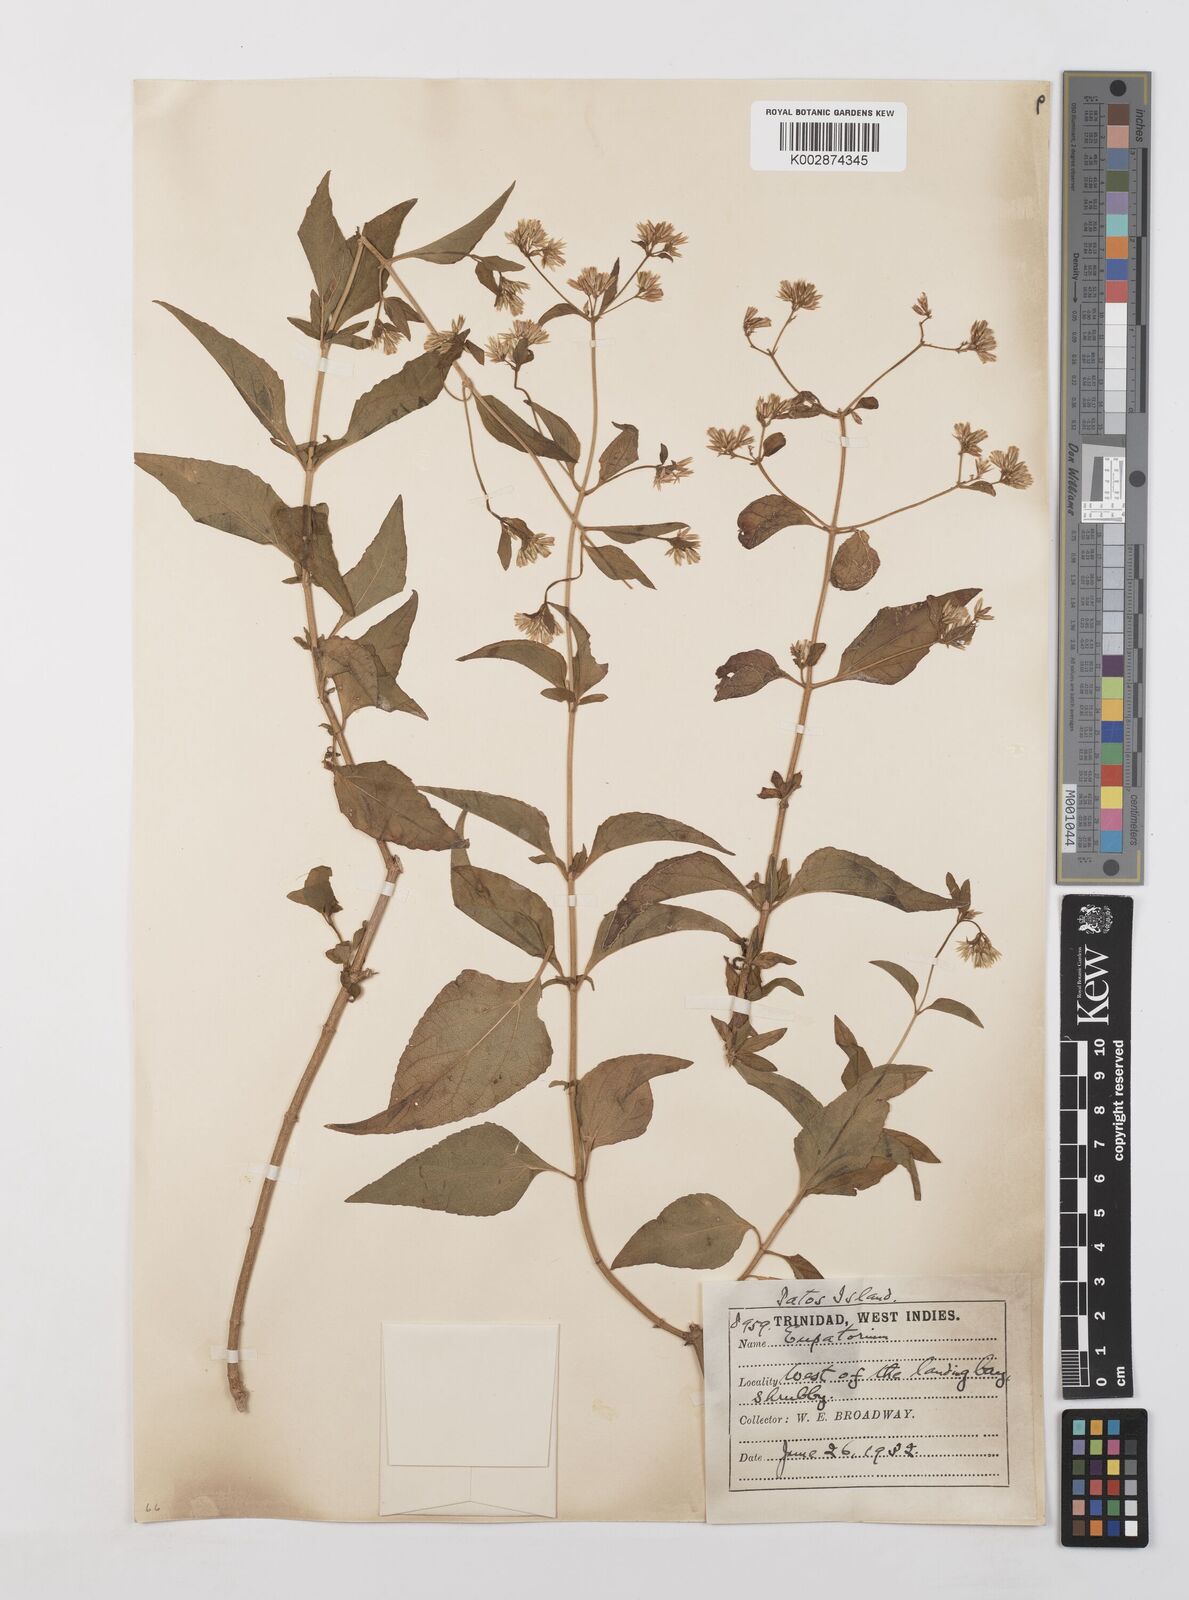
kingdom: Plantae
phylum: Tracheophyta
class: Magnoliopsida
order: Asterales
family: Asteraceae
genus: Condylidium
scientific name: Condylidium iresinoides
